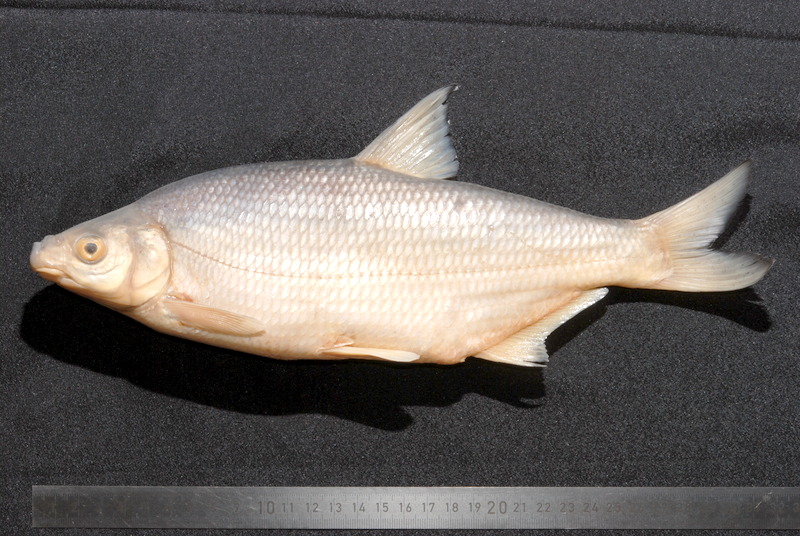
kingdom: Animalia
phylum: Chordata
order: Cypriniformes
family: Cyprinidae
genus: Vimba
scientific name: Vimba vimba
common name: Vimba
